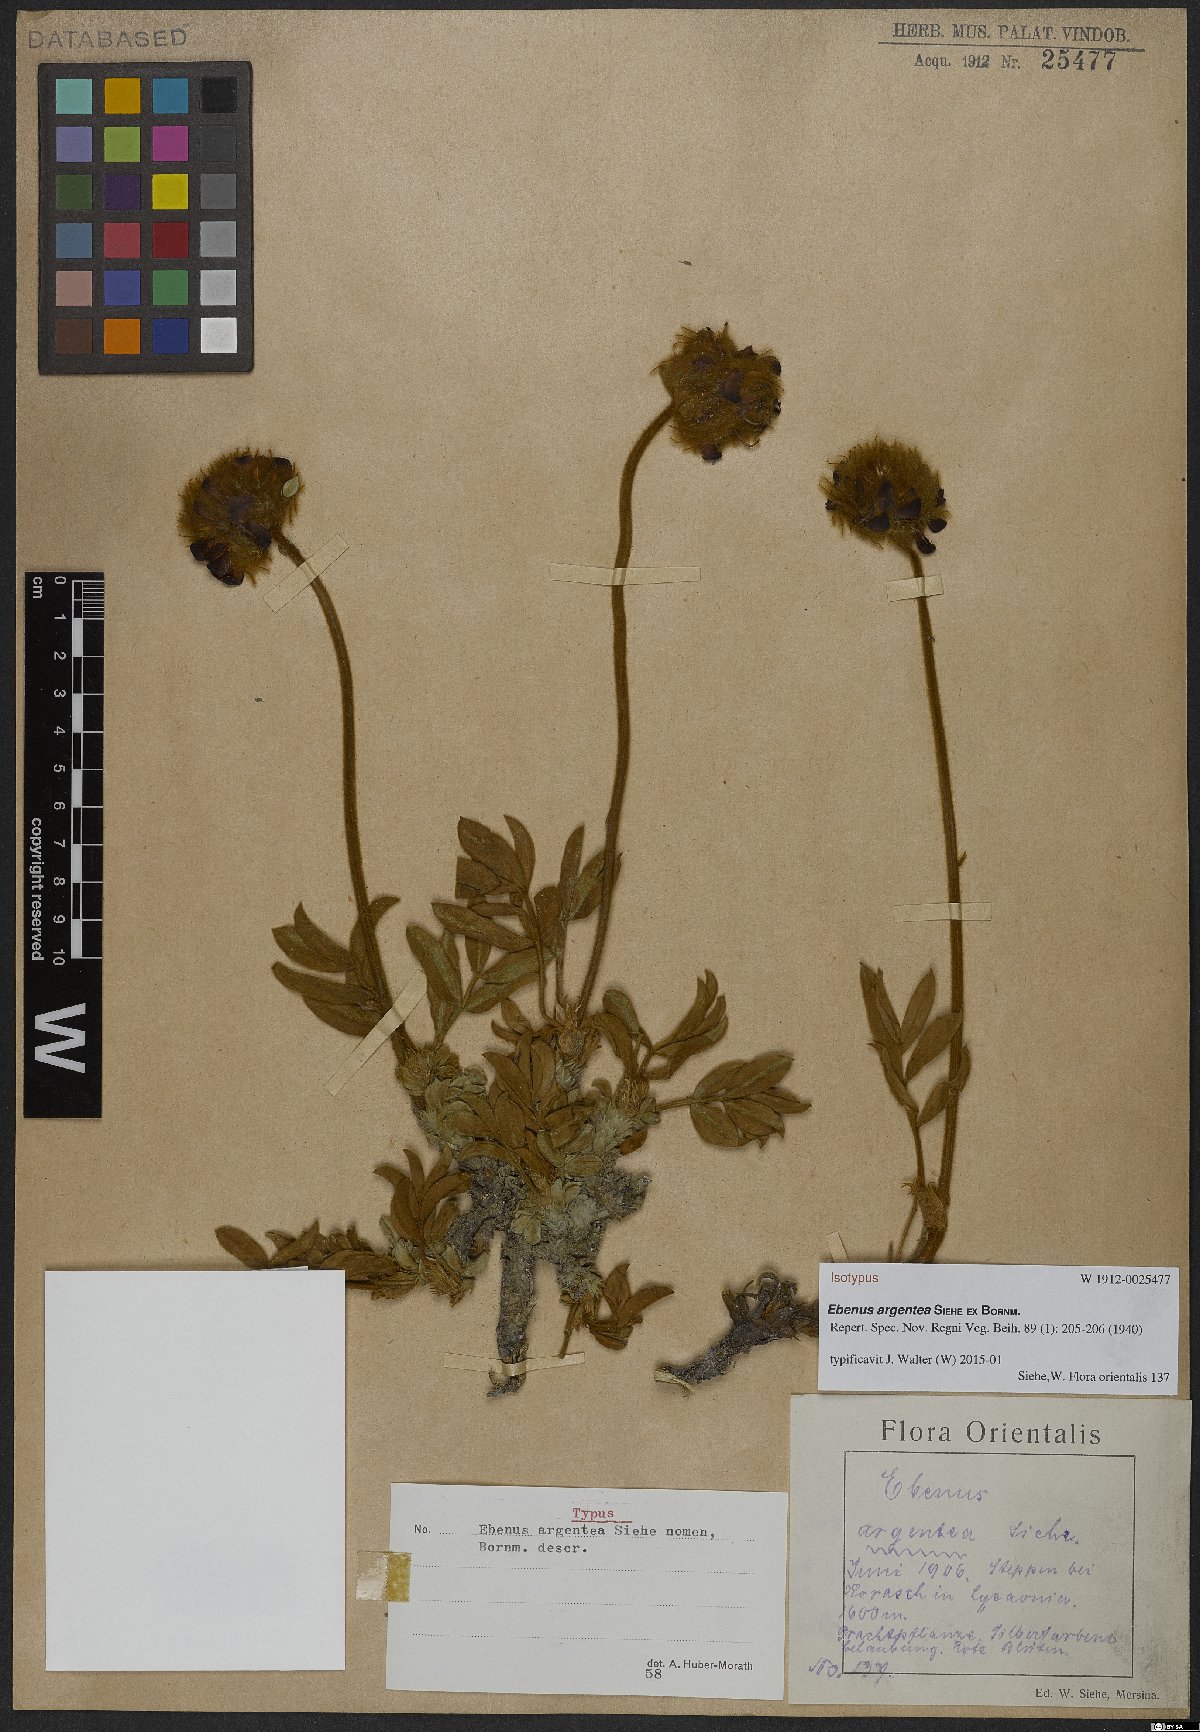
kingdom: Plantae
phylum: Tracheophyta
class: Magnoliopsida
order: Fabales
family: Fabaceae
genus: Ebenus
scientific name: Ebenus argentea
